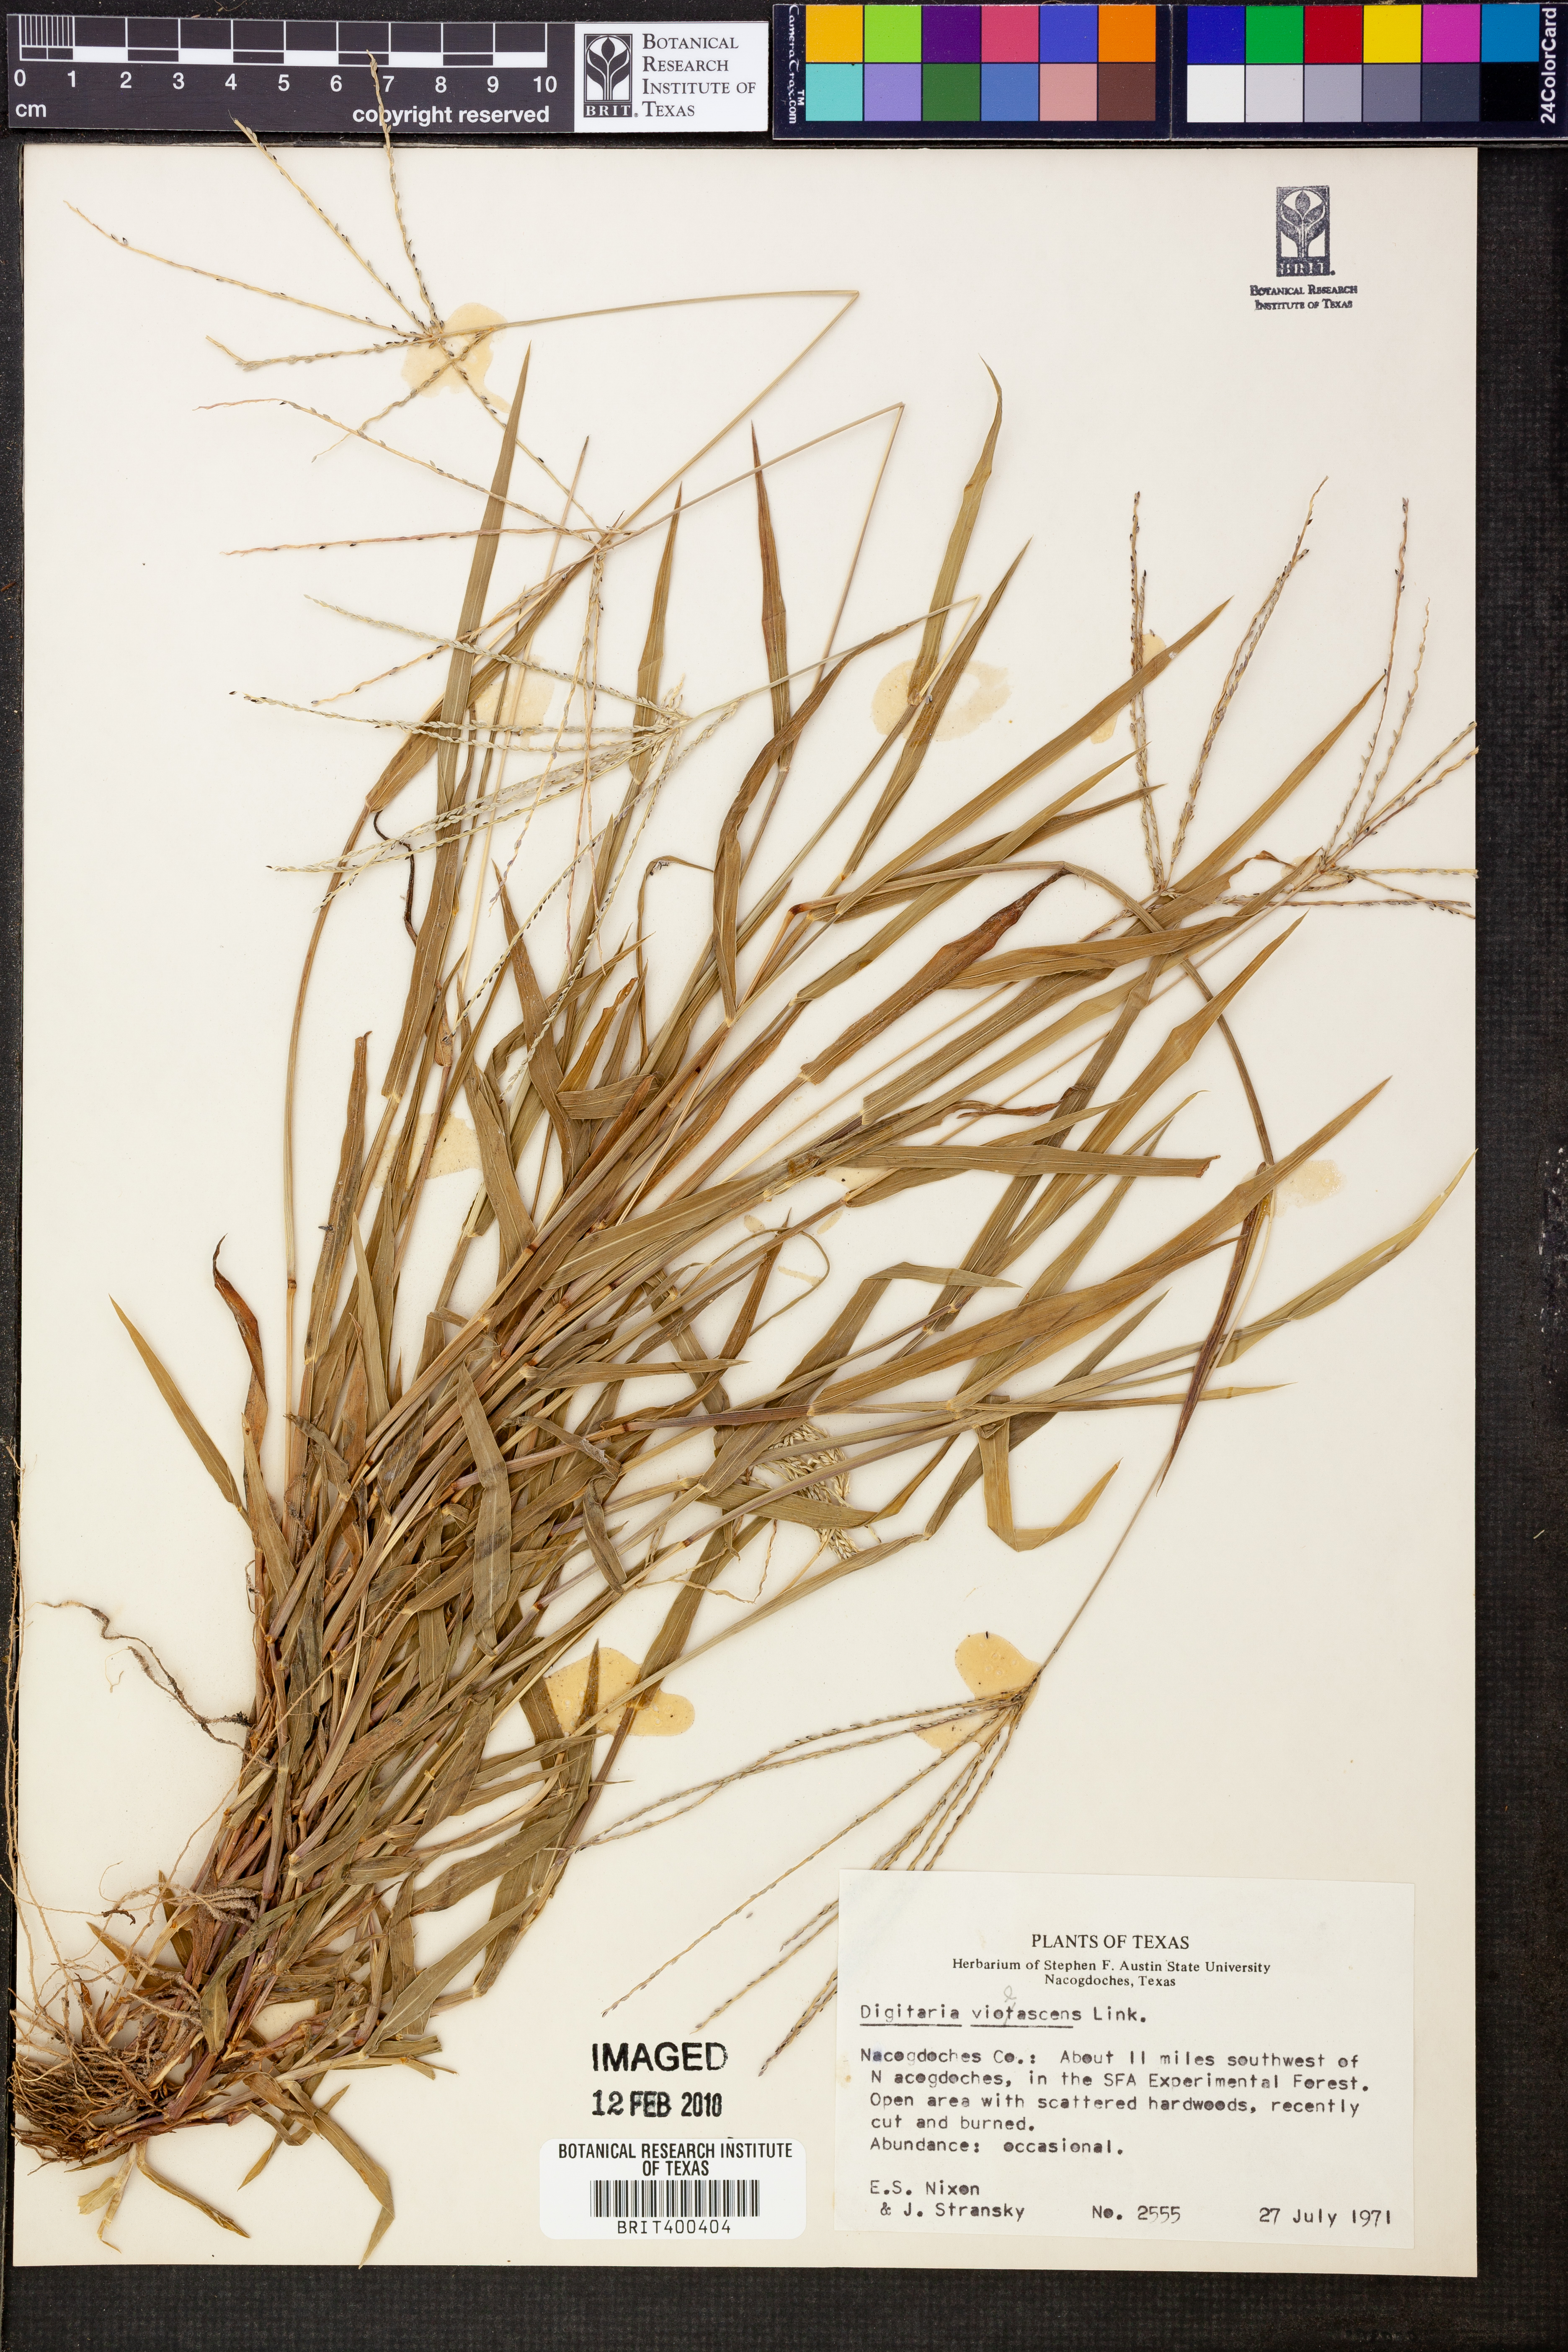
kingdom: Plantae
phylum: Tracheophyta
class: Liliopsida
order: Poales
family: Poaceae
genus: Digitaria
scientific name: Digitaria violascens
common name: Violet crabgrass
